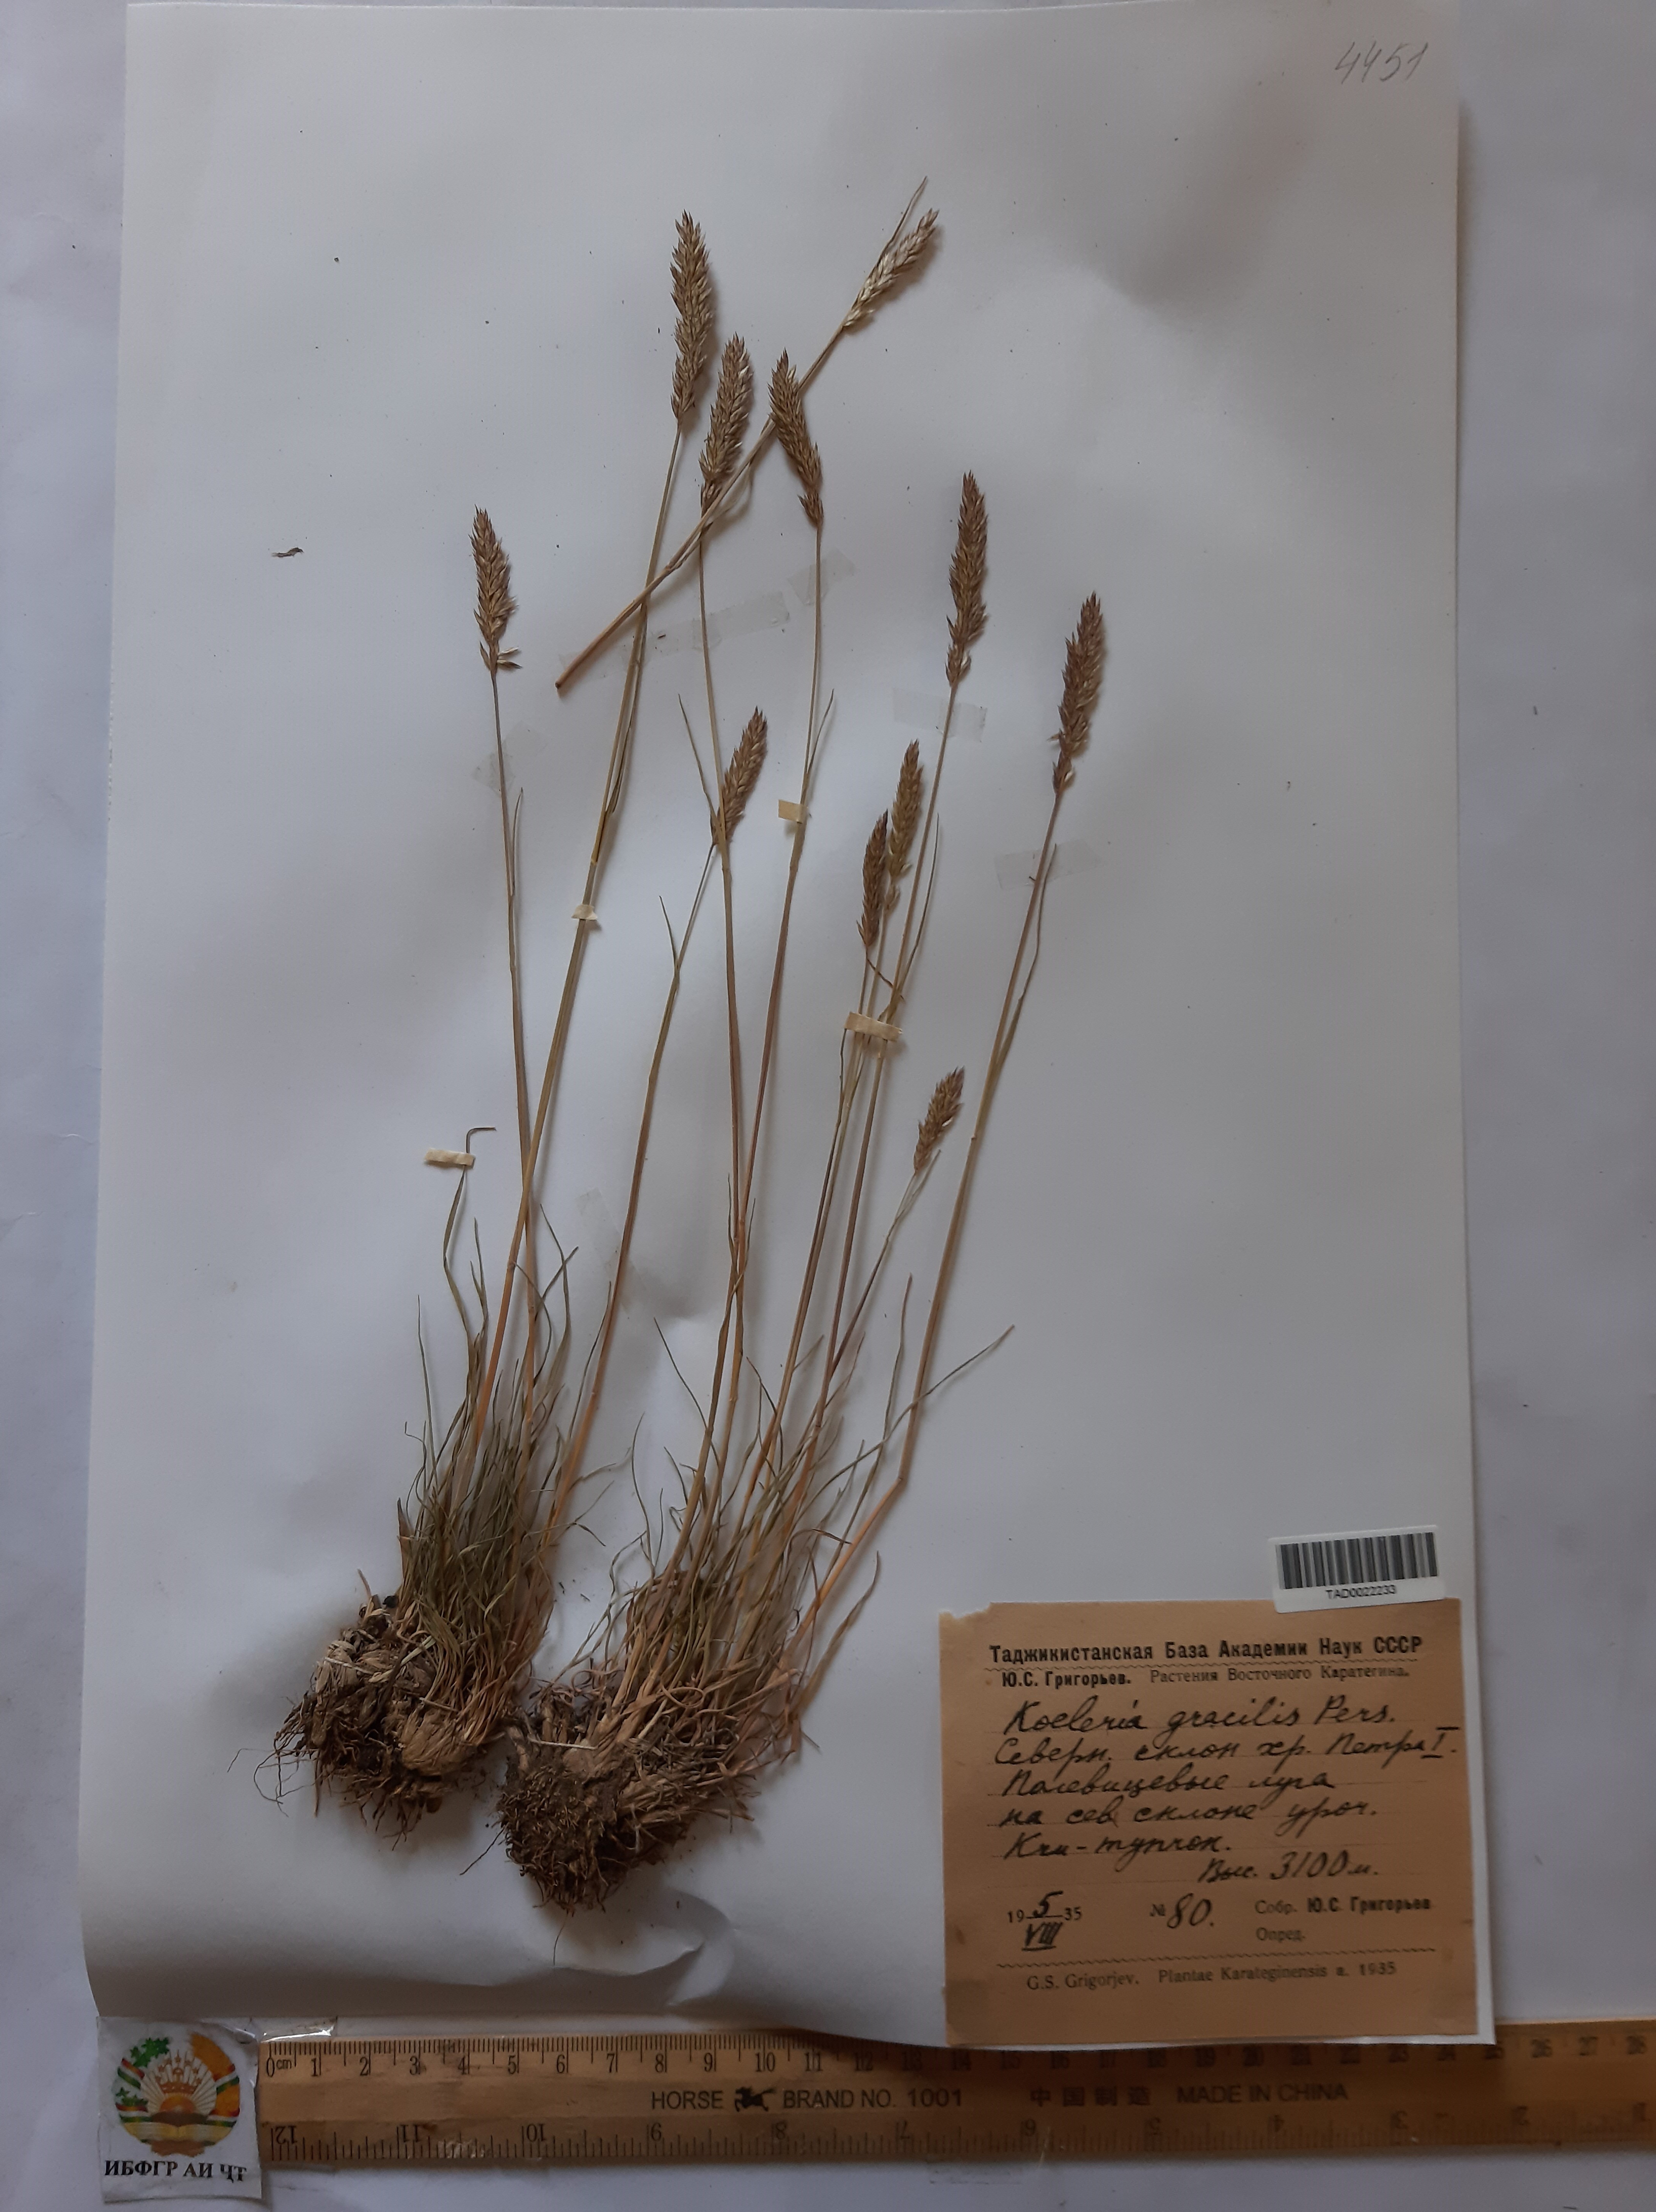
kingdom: Plantae
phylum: Tracheophyta
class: Liliopsida
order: Poales
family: Poaceae
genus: Koeleria
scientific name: Koeleria macrantha
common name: Crested hair-grass
